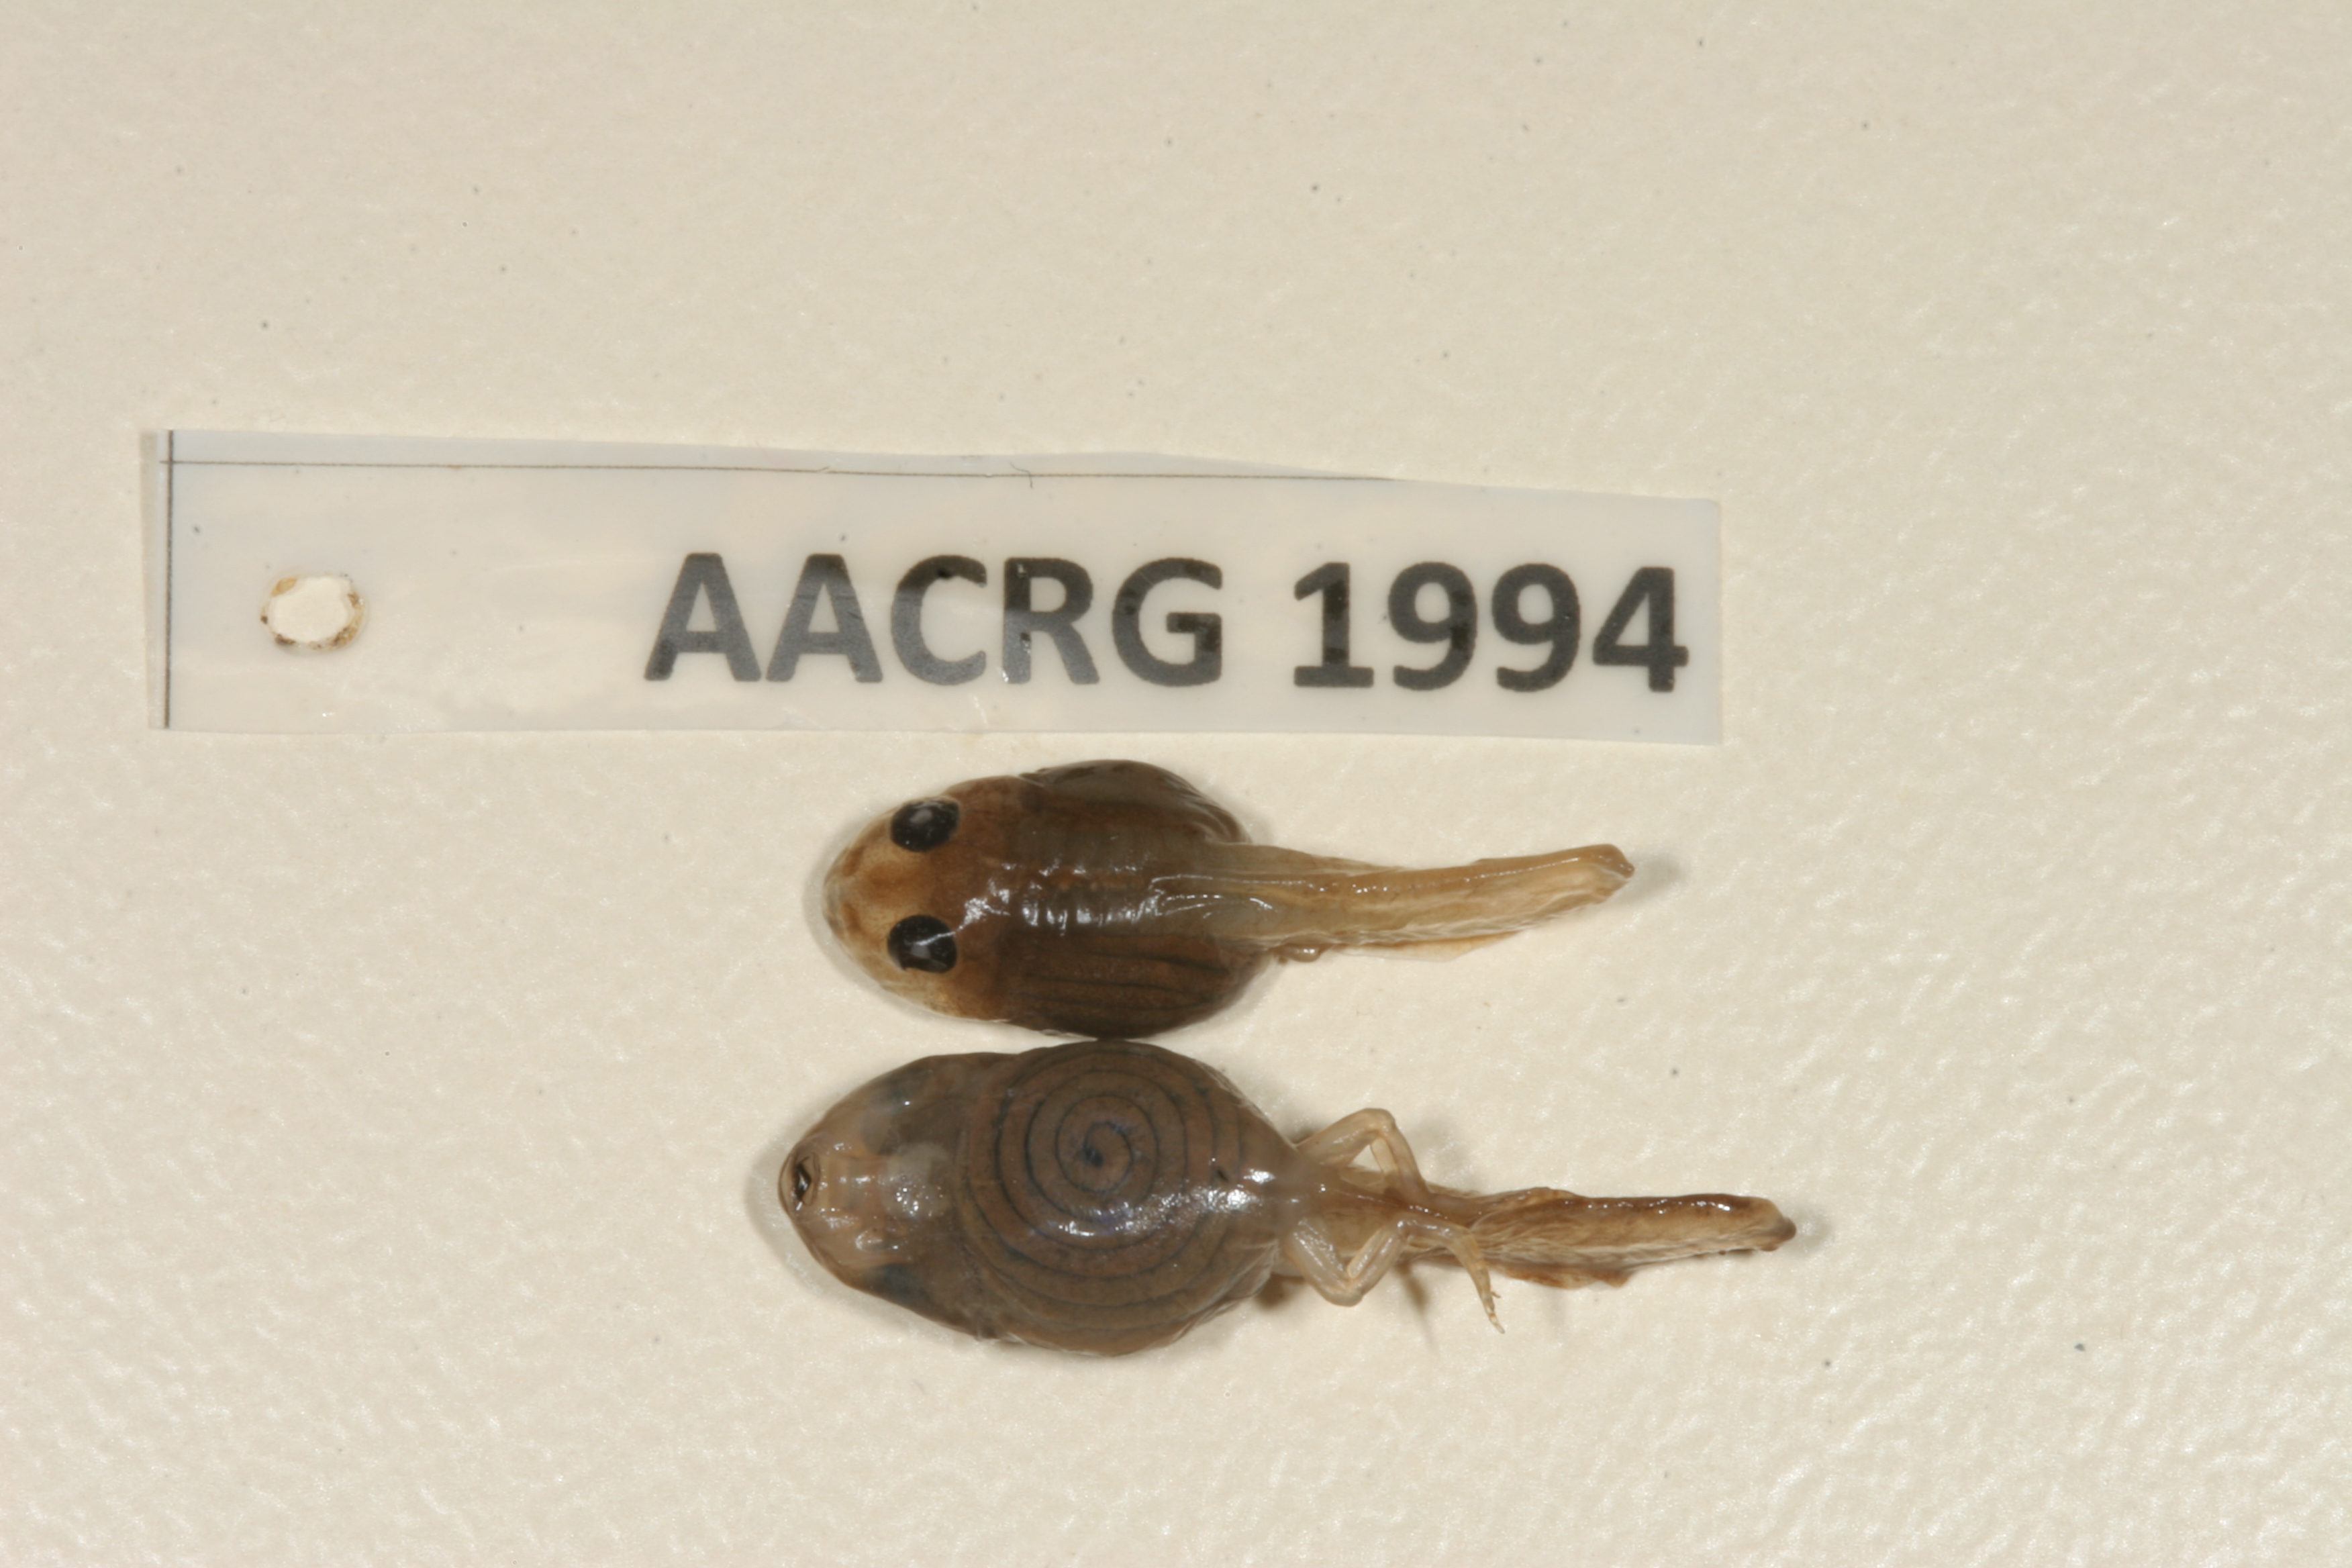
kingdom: Animalia
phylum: Chordata
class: Amphibia
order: Anura
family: Phrynobatrachidae
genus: Phrynobatrachus
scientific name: Phrynobatrachus natalensis
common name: Snoring puddle frog
